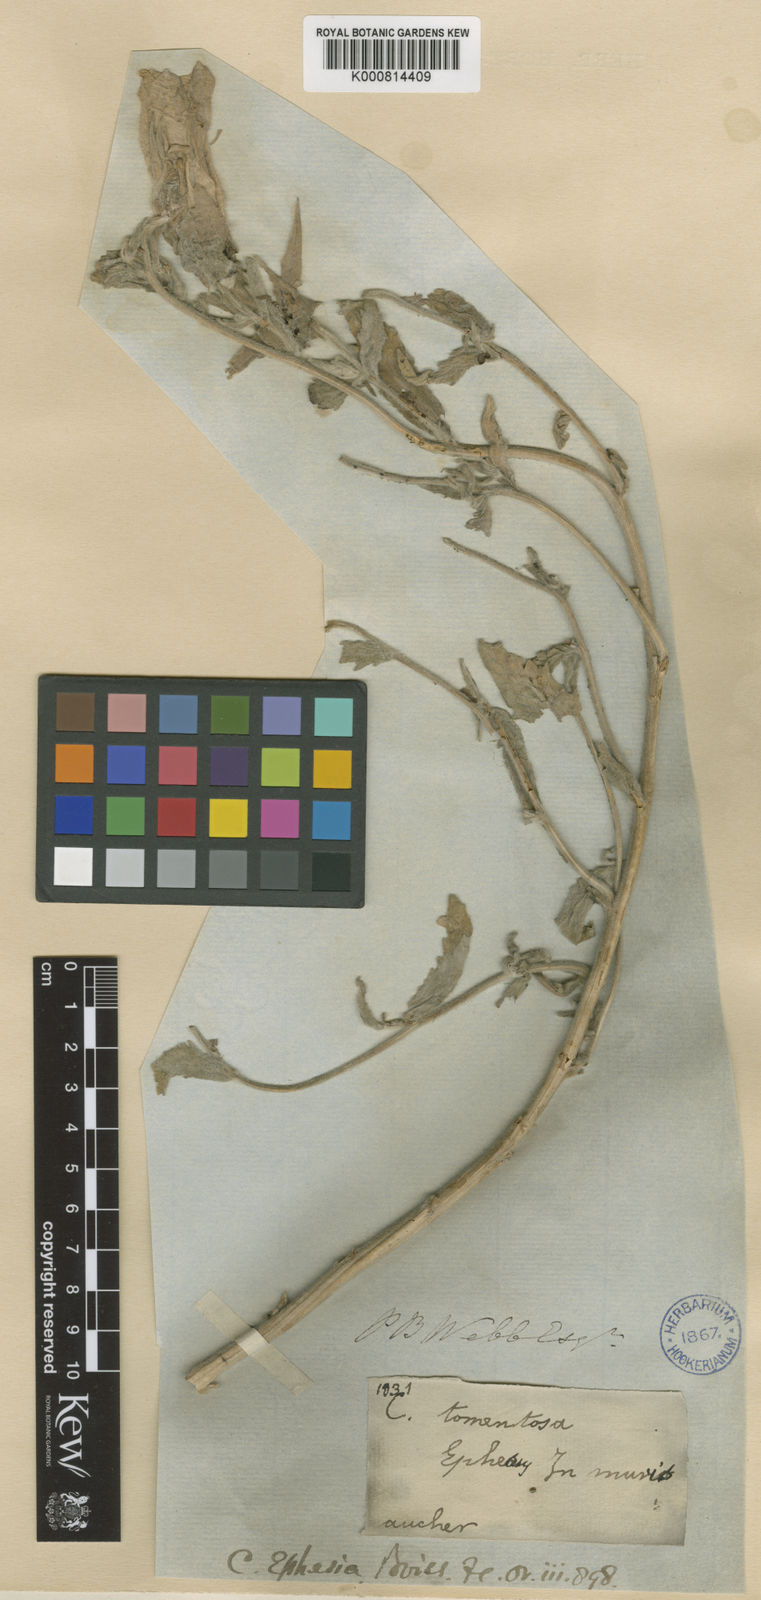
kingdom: Plantae
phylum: Tracheophyta
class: Magnoliopsida
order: Asterales
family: Campanulaceae
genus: Campanula
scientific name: Campanula tomentosa
